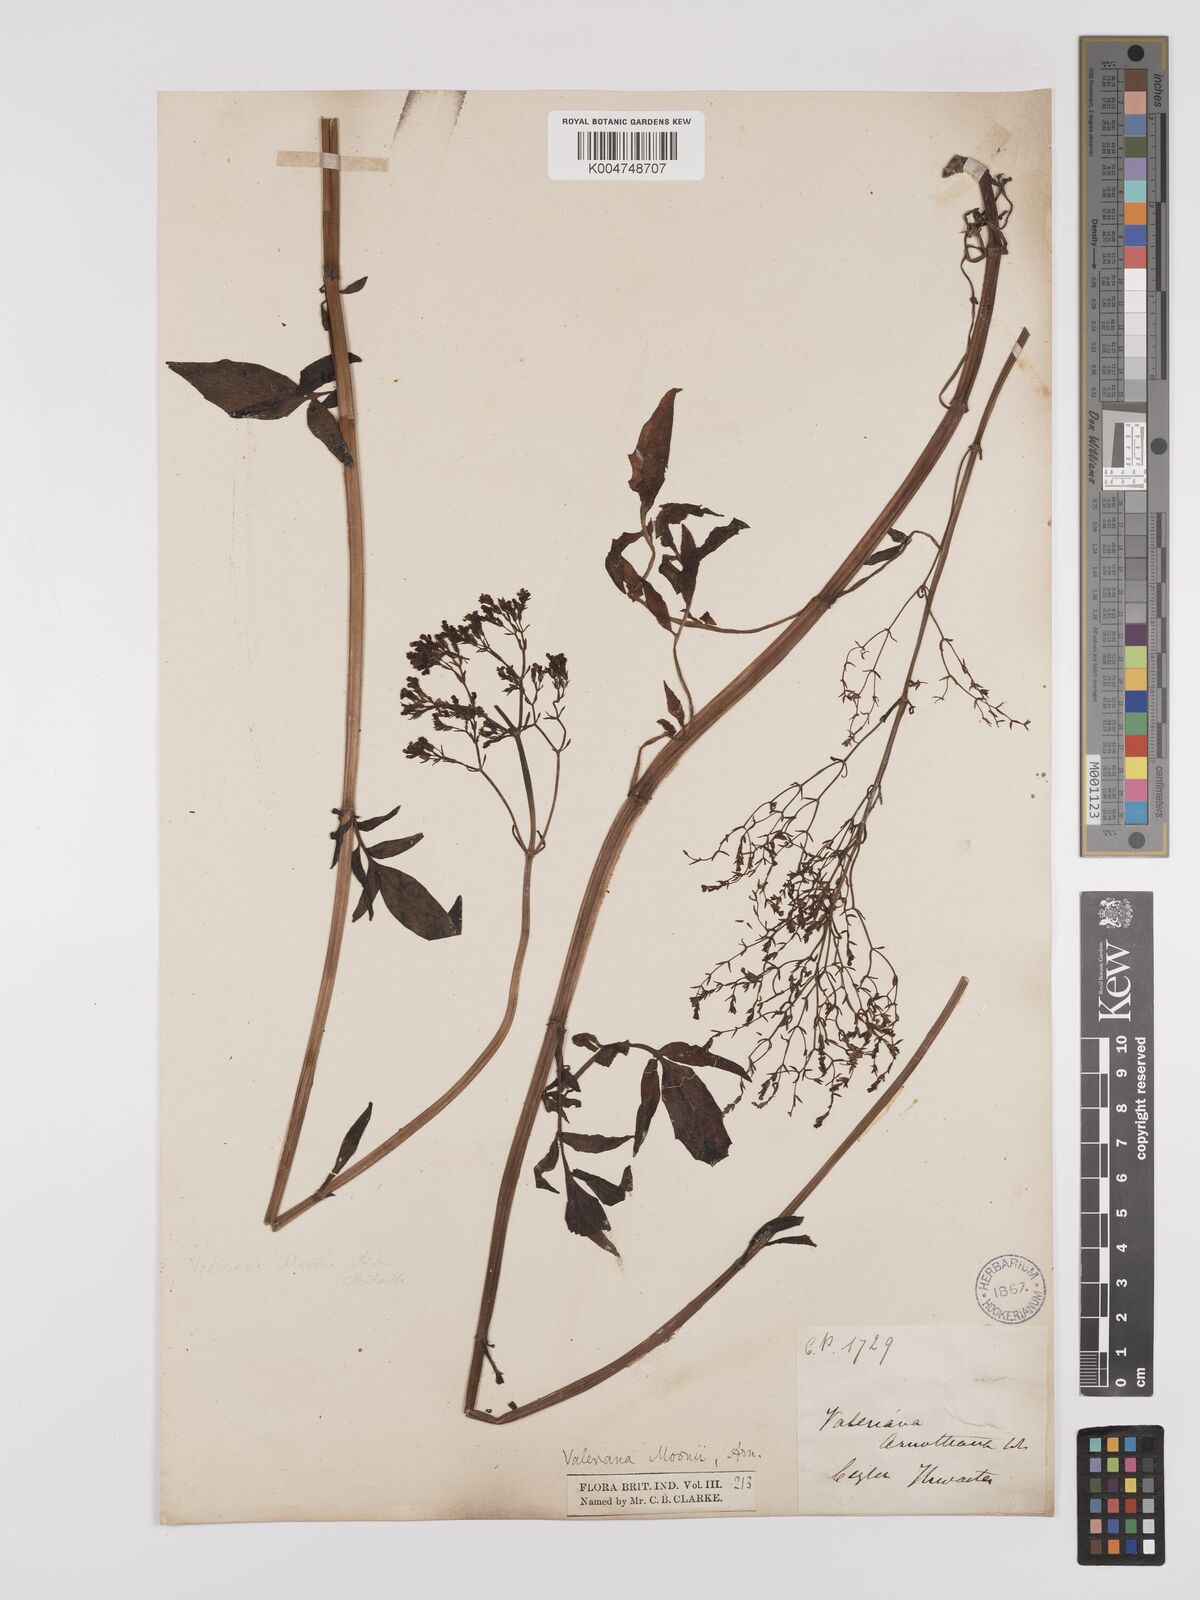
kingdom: Plantae
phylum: Tracheophyta
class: Magnoliopsida
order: Dipsacales
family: Caprifoliaceae
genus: Valeriana
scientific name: Valeriana moonii
